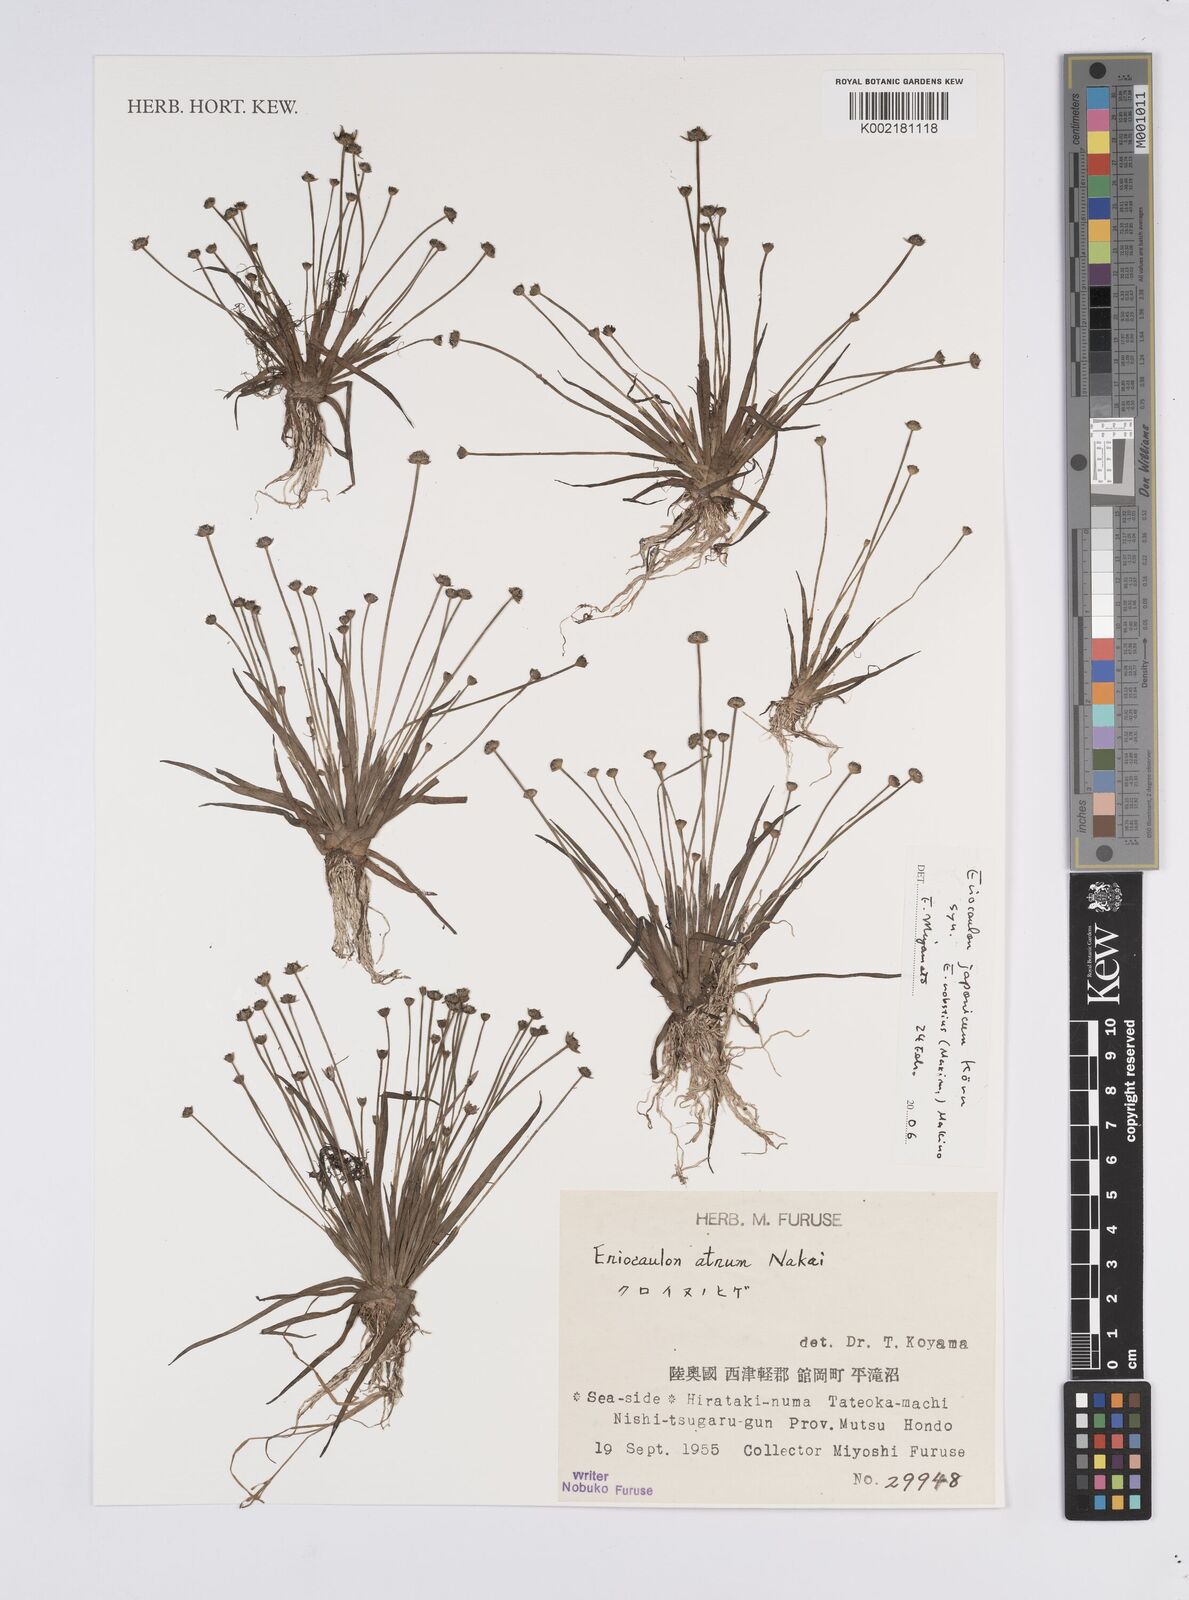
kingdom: Plantae
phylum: Tracheophyta
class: Liliopsida
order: Poales
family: Eriocaulaceae
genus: Eriocaulon
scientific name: Eriocaulon atrum
